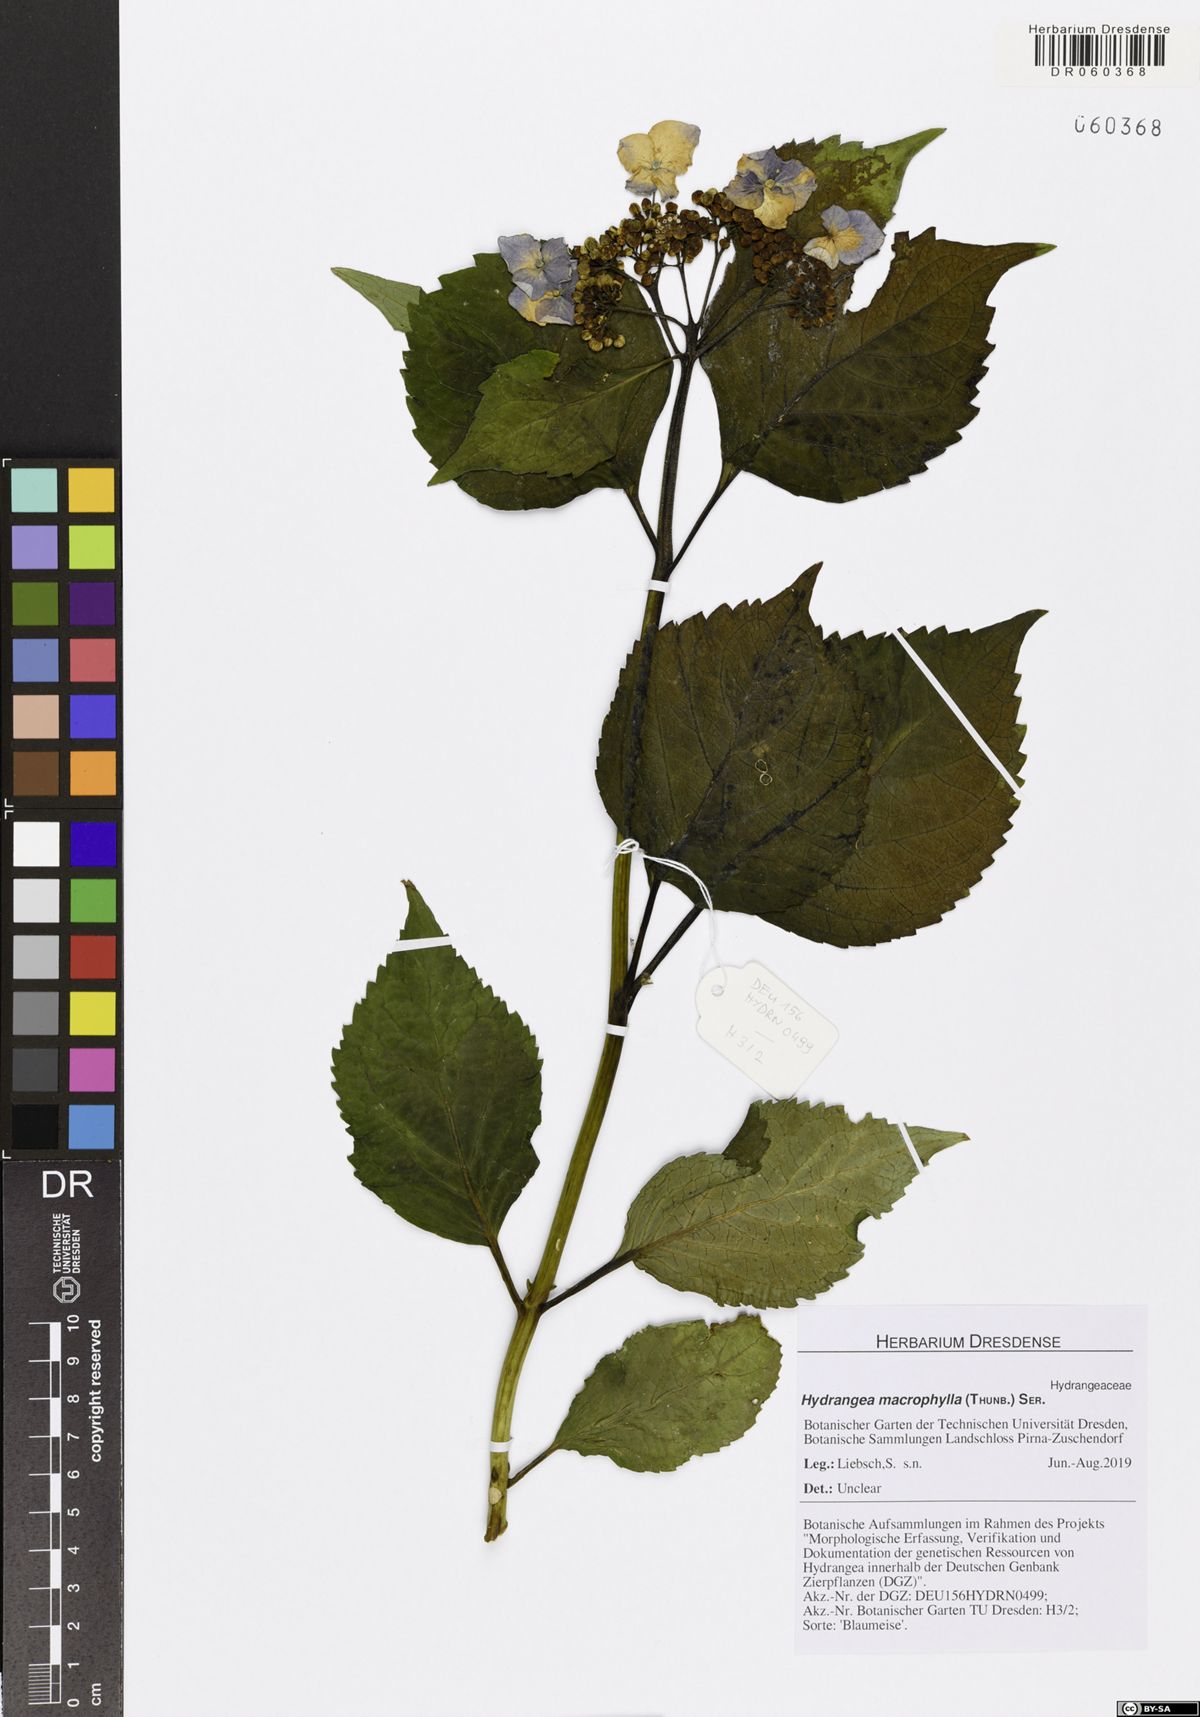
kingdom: Plantae
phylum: Tracheophyta
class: Magnoliopsida
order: Cornales
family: Hydrangeaceae
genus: Hydrangea
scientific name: Hydrangea macrophylla
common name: Hydrangea
